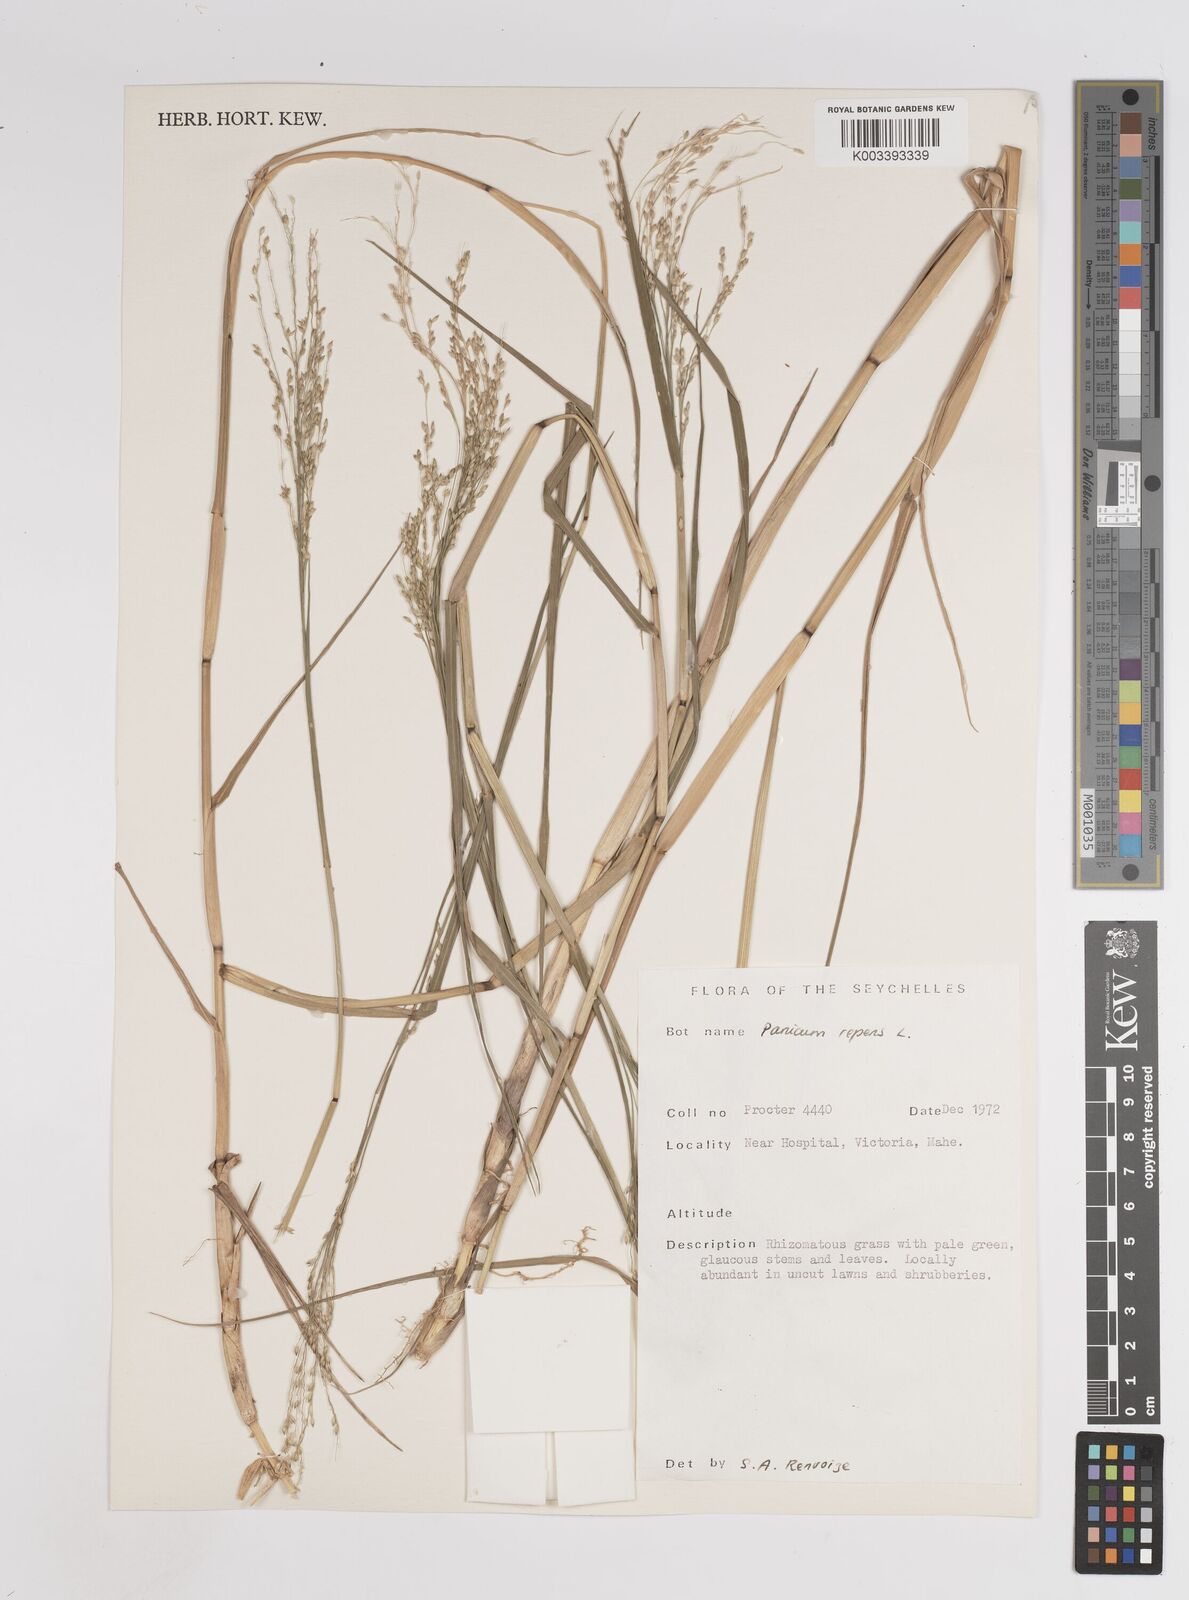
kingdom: Plantae
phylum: Tracheophyta
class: Liliopsida
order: Poales
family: Poaceae
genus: Panicum
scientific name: Panicum repens
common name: Torpedo grass
